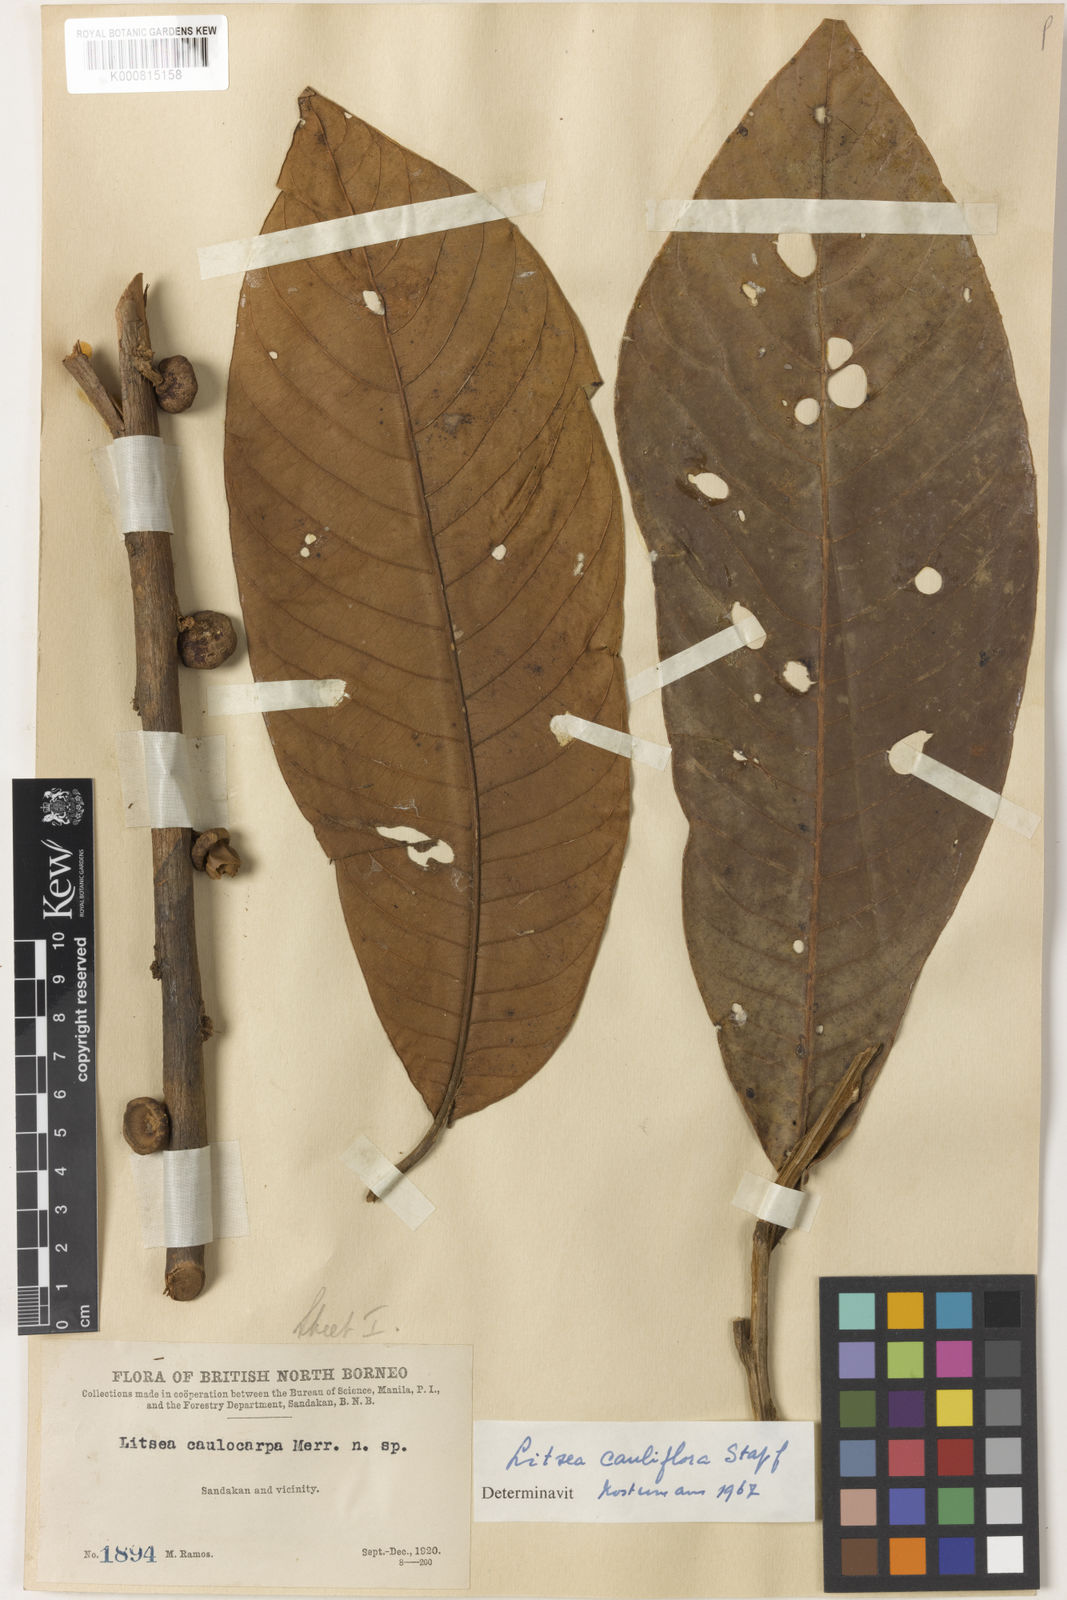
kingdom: Plantae
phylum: Tracheophyta
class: Magnoliopsida
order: Laurales
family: Lauraceae
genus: Litsea
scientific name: Litsea cauliflora
